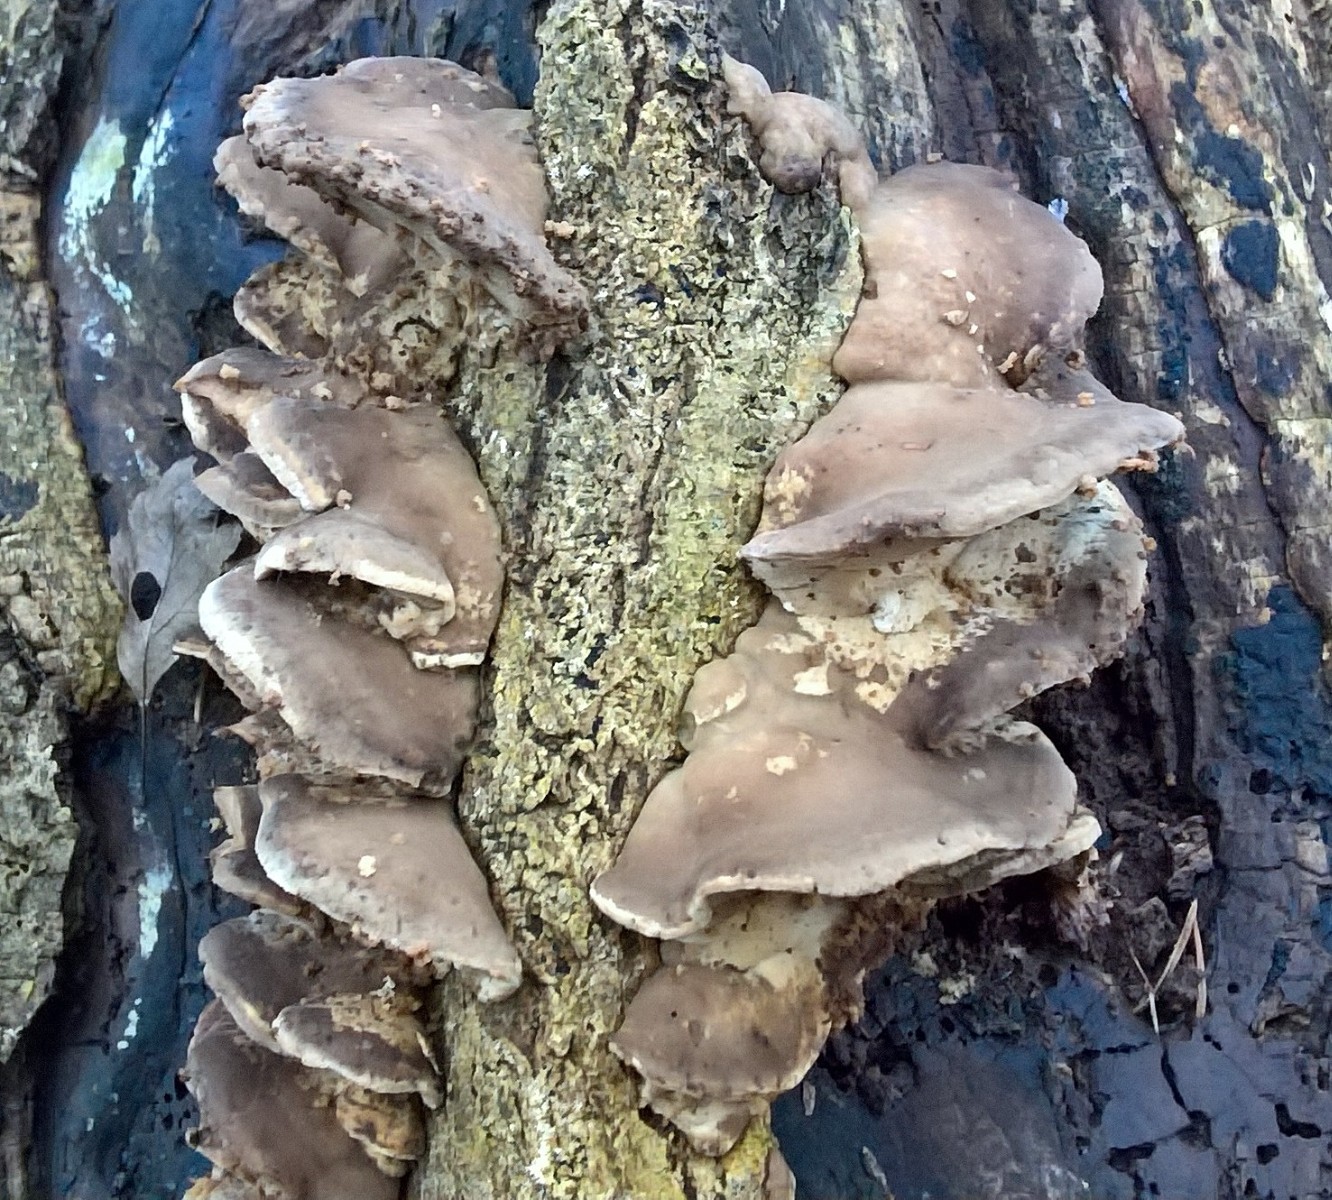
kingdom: Fungi
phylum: Basidiomycota
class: Agaricomycetes
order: Polyporales
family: Phanerochaetaceae
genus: Bjerkandera
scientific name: Bjerkandera fumosa
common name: grågul sodporesvamp
